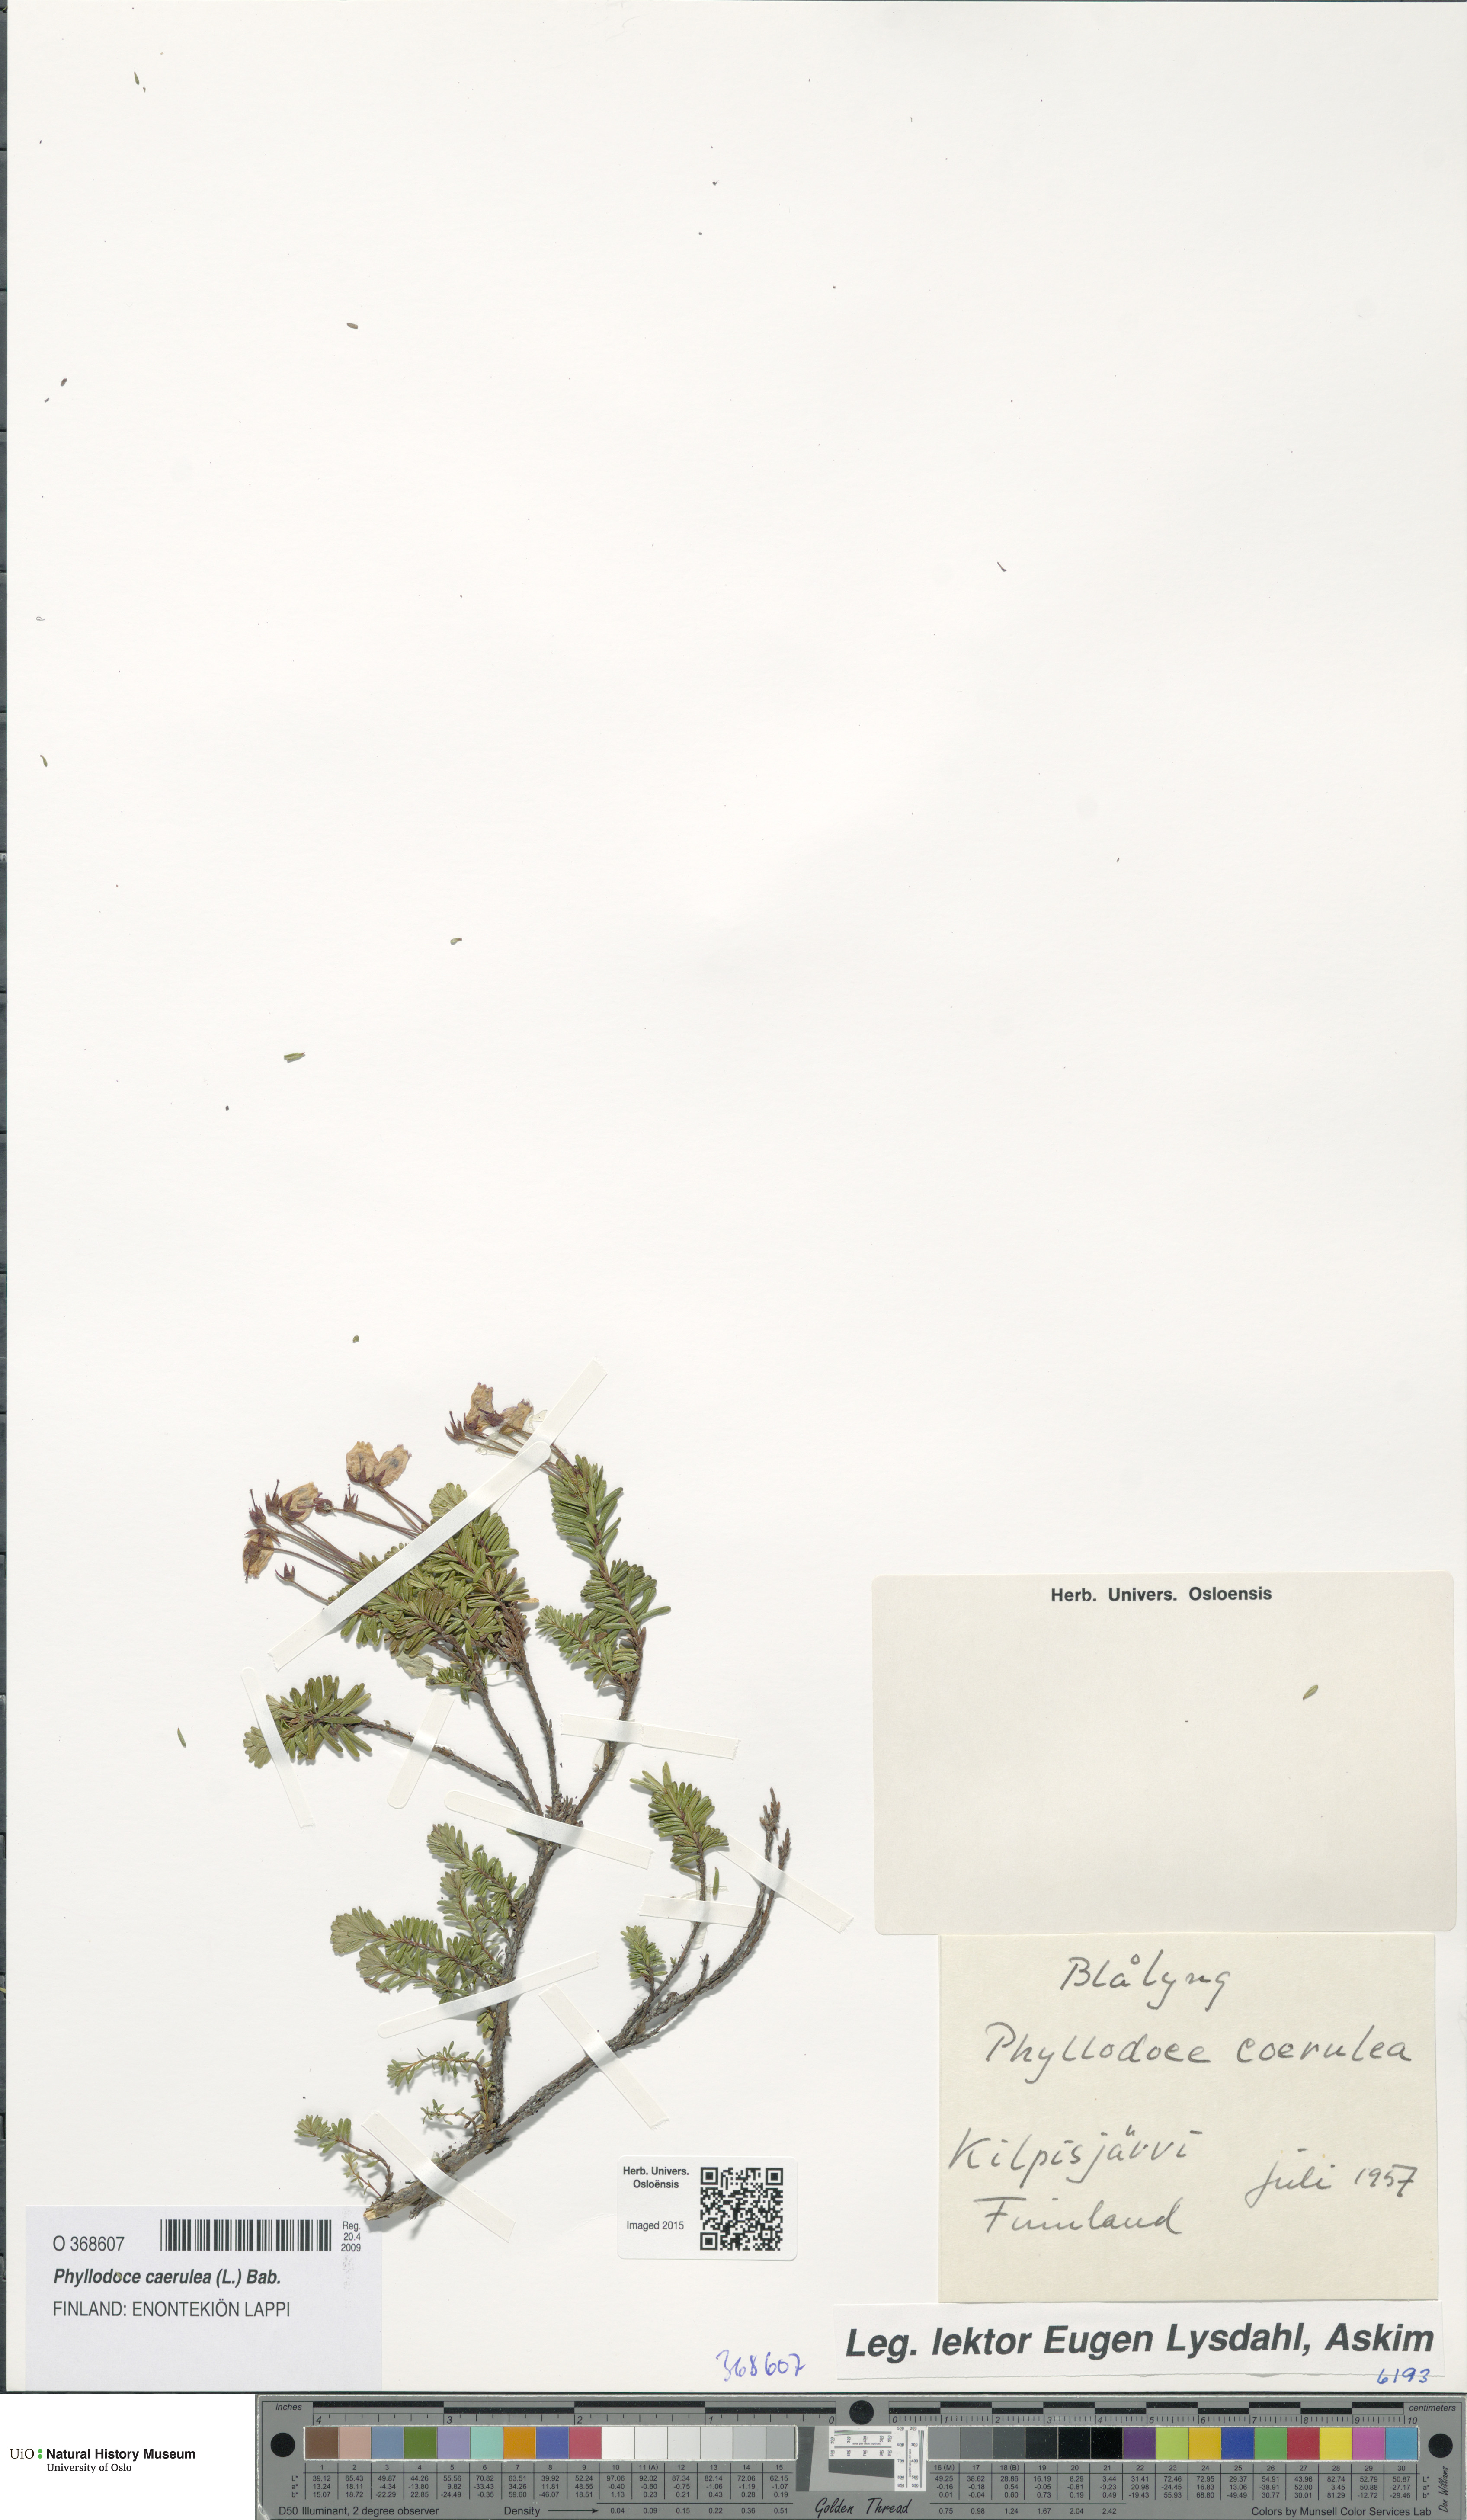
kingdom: Plantae
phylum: Tracheophyta
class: Magnoliopsida
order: Ericales
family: Ericaceae
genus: Phyllodoce
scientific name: Phyllodoce caerulea
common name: Blue heath
